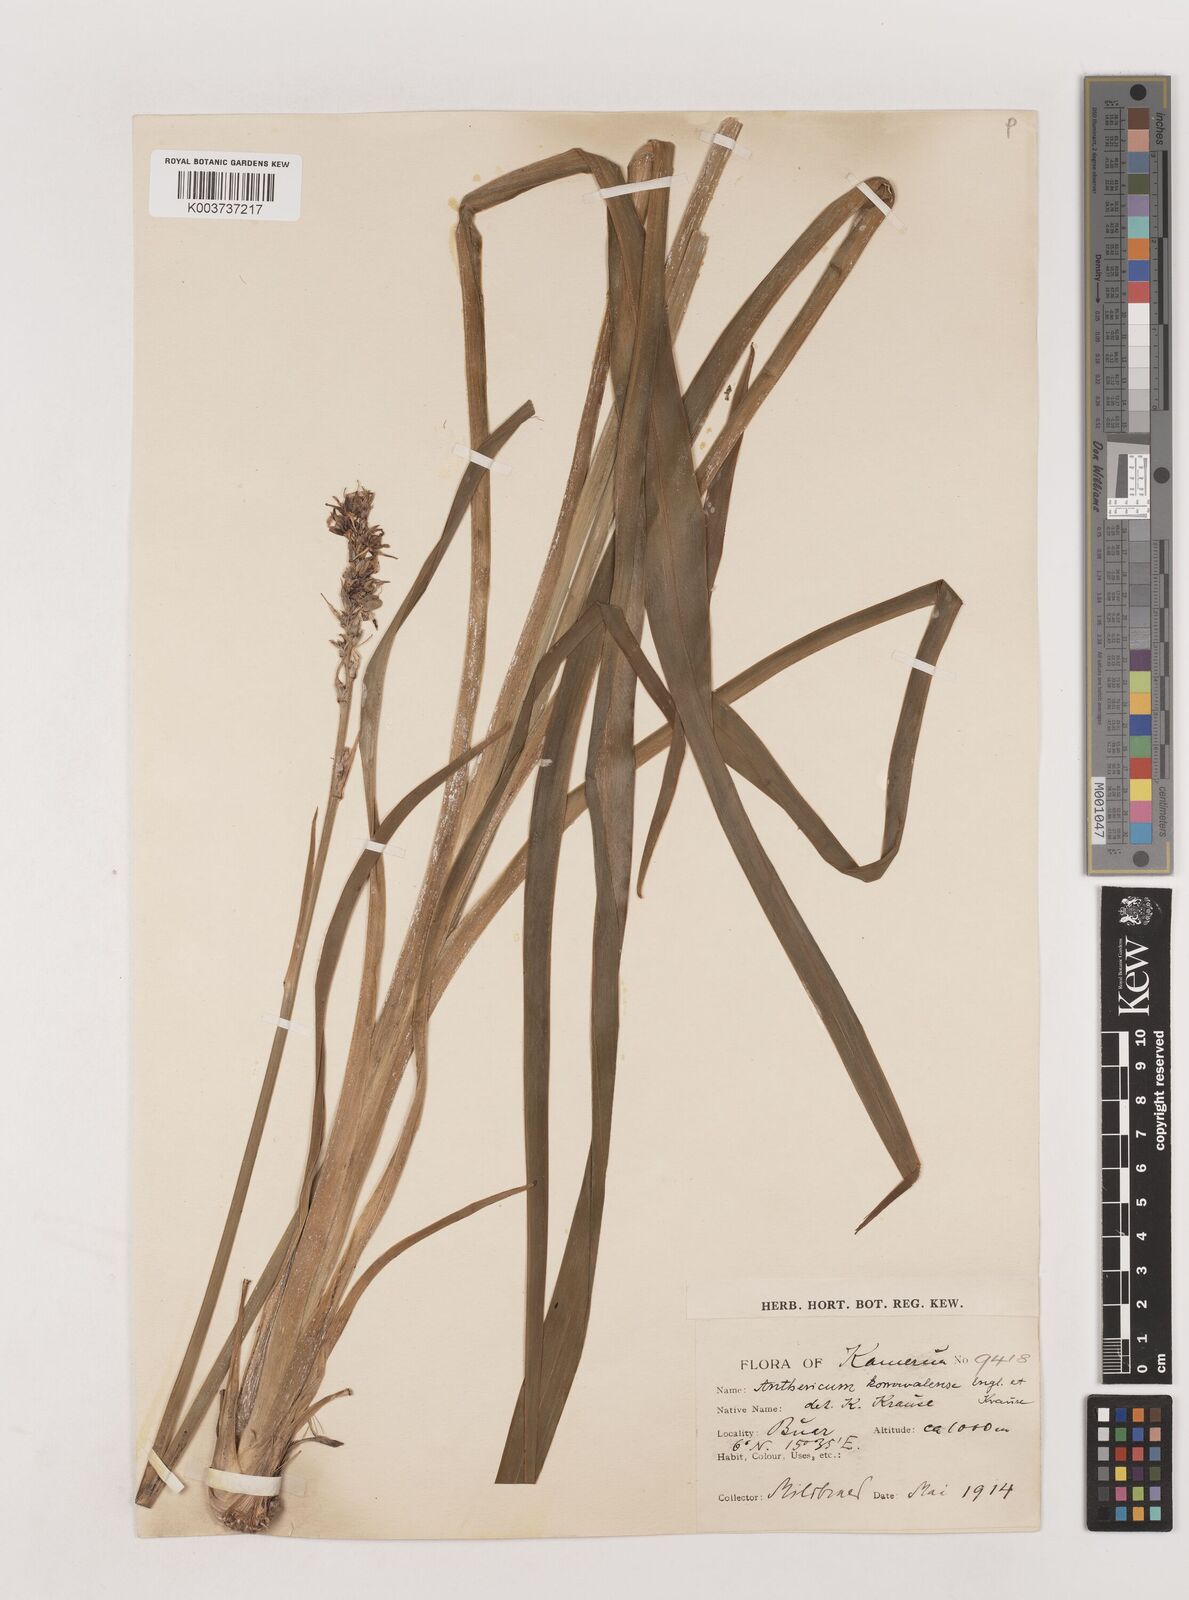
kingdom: Plantae
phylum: Tracheophyta
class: Liliopsida
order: Asparagales
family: Asparagaceae
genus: Chlorophytum
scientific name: Chlorophytum cameronii
